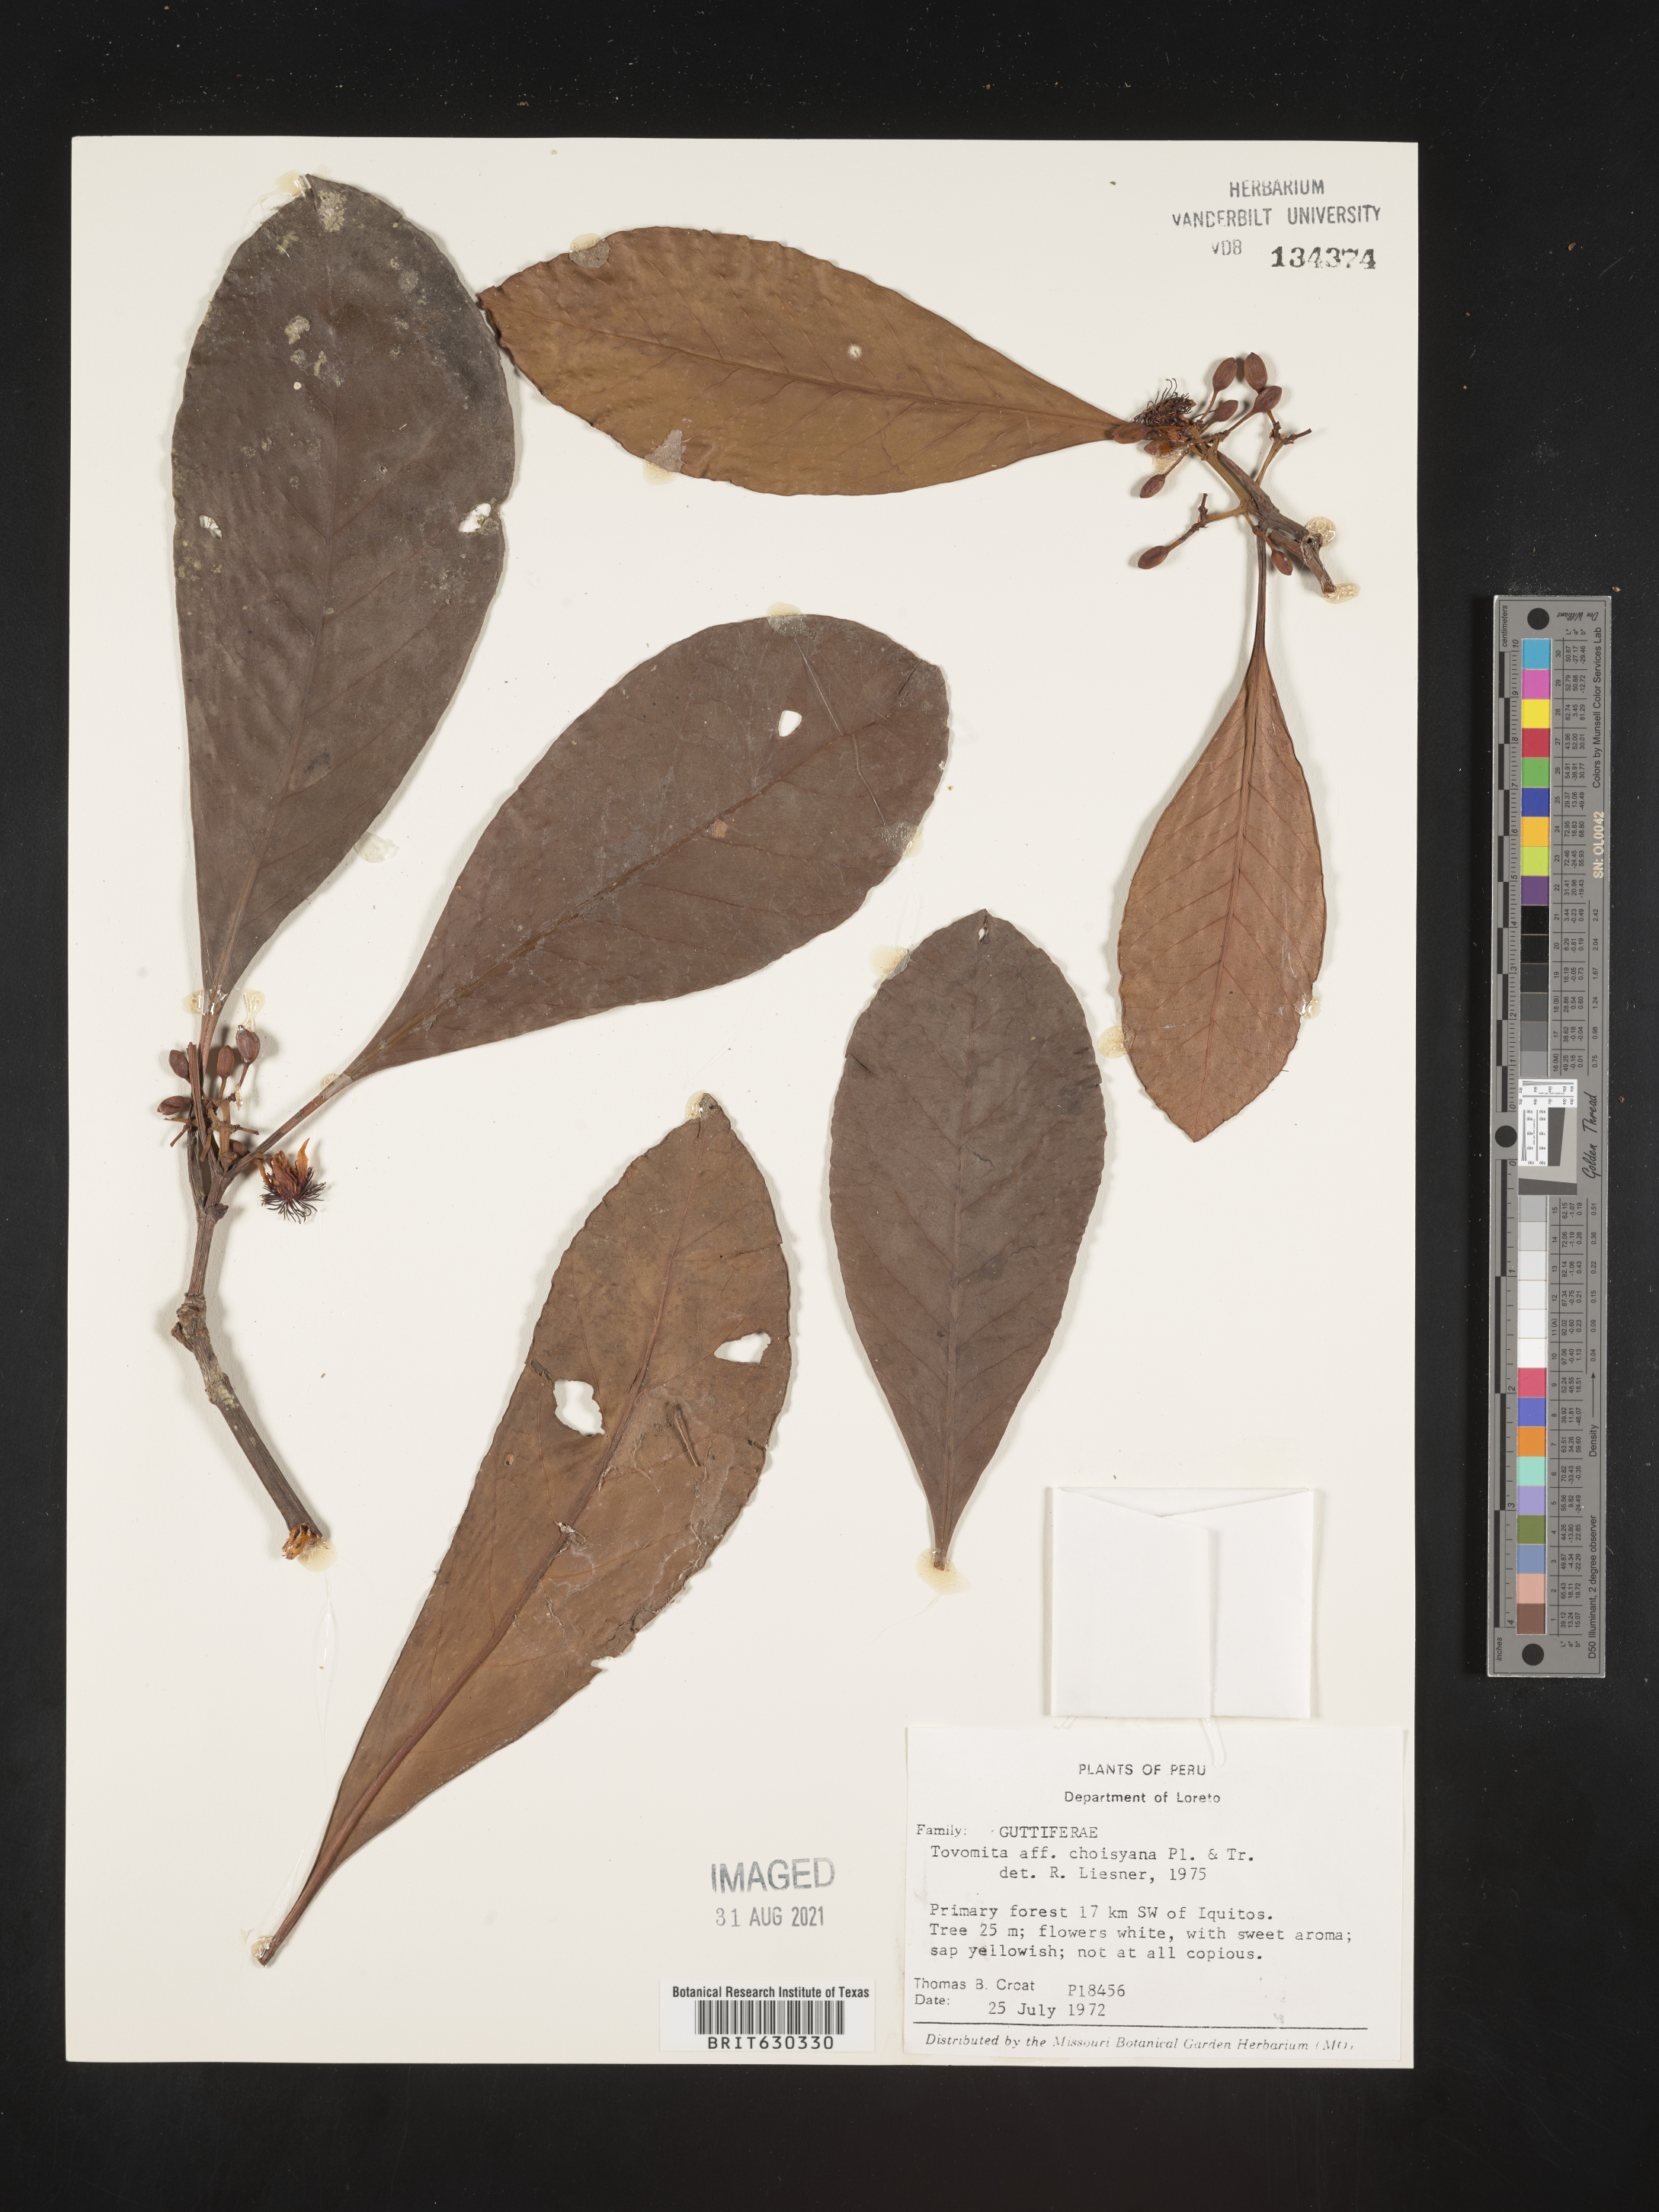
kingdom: Plantae
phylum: Tracheophyta
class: Magnoliopsida
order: Malpighiales
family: Clusiaceae
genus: Tovomita
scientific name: Tovomita choisyana
